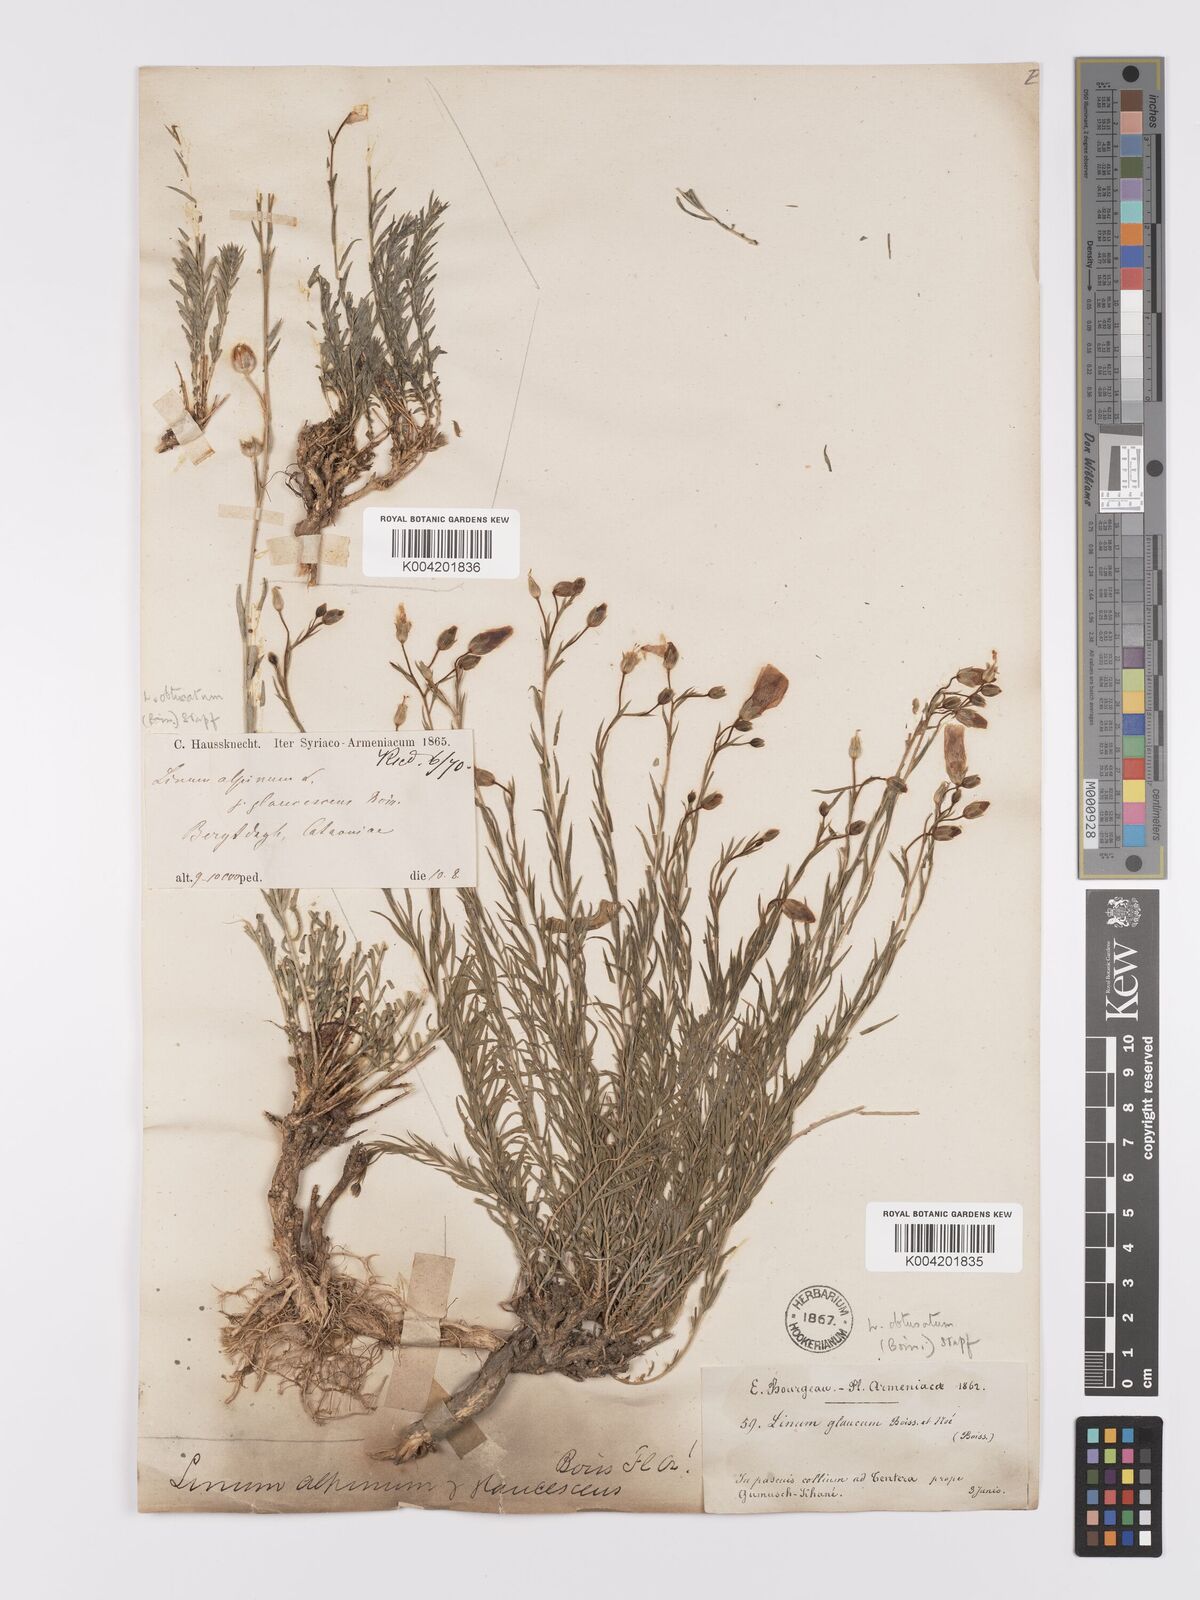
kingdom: Plantae
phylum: Tracheophyta
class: Magnoliopsida
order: Malpighiales
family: Linaceae
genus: Linum
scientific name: Linum obtusatum
